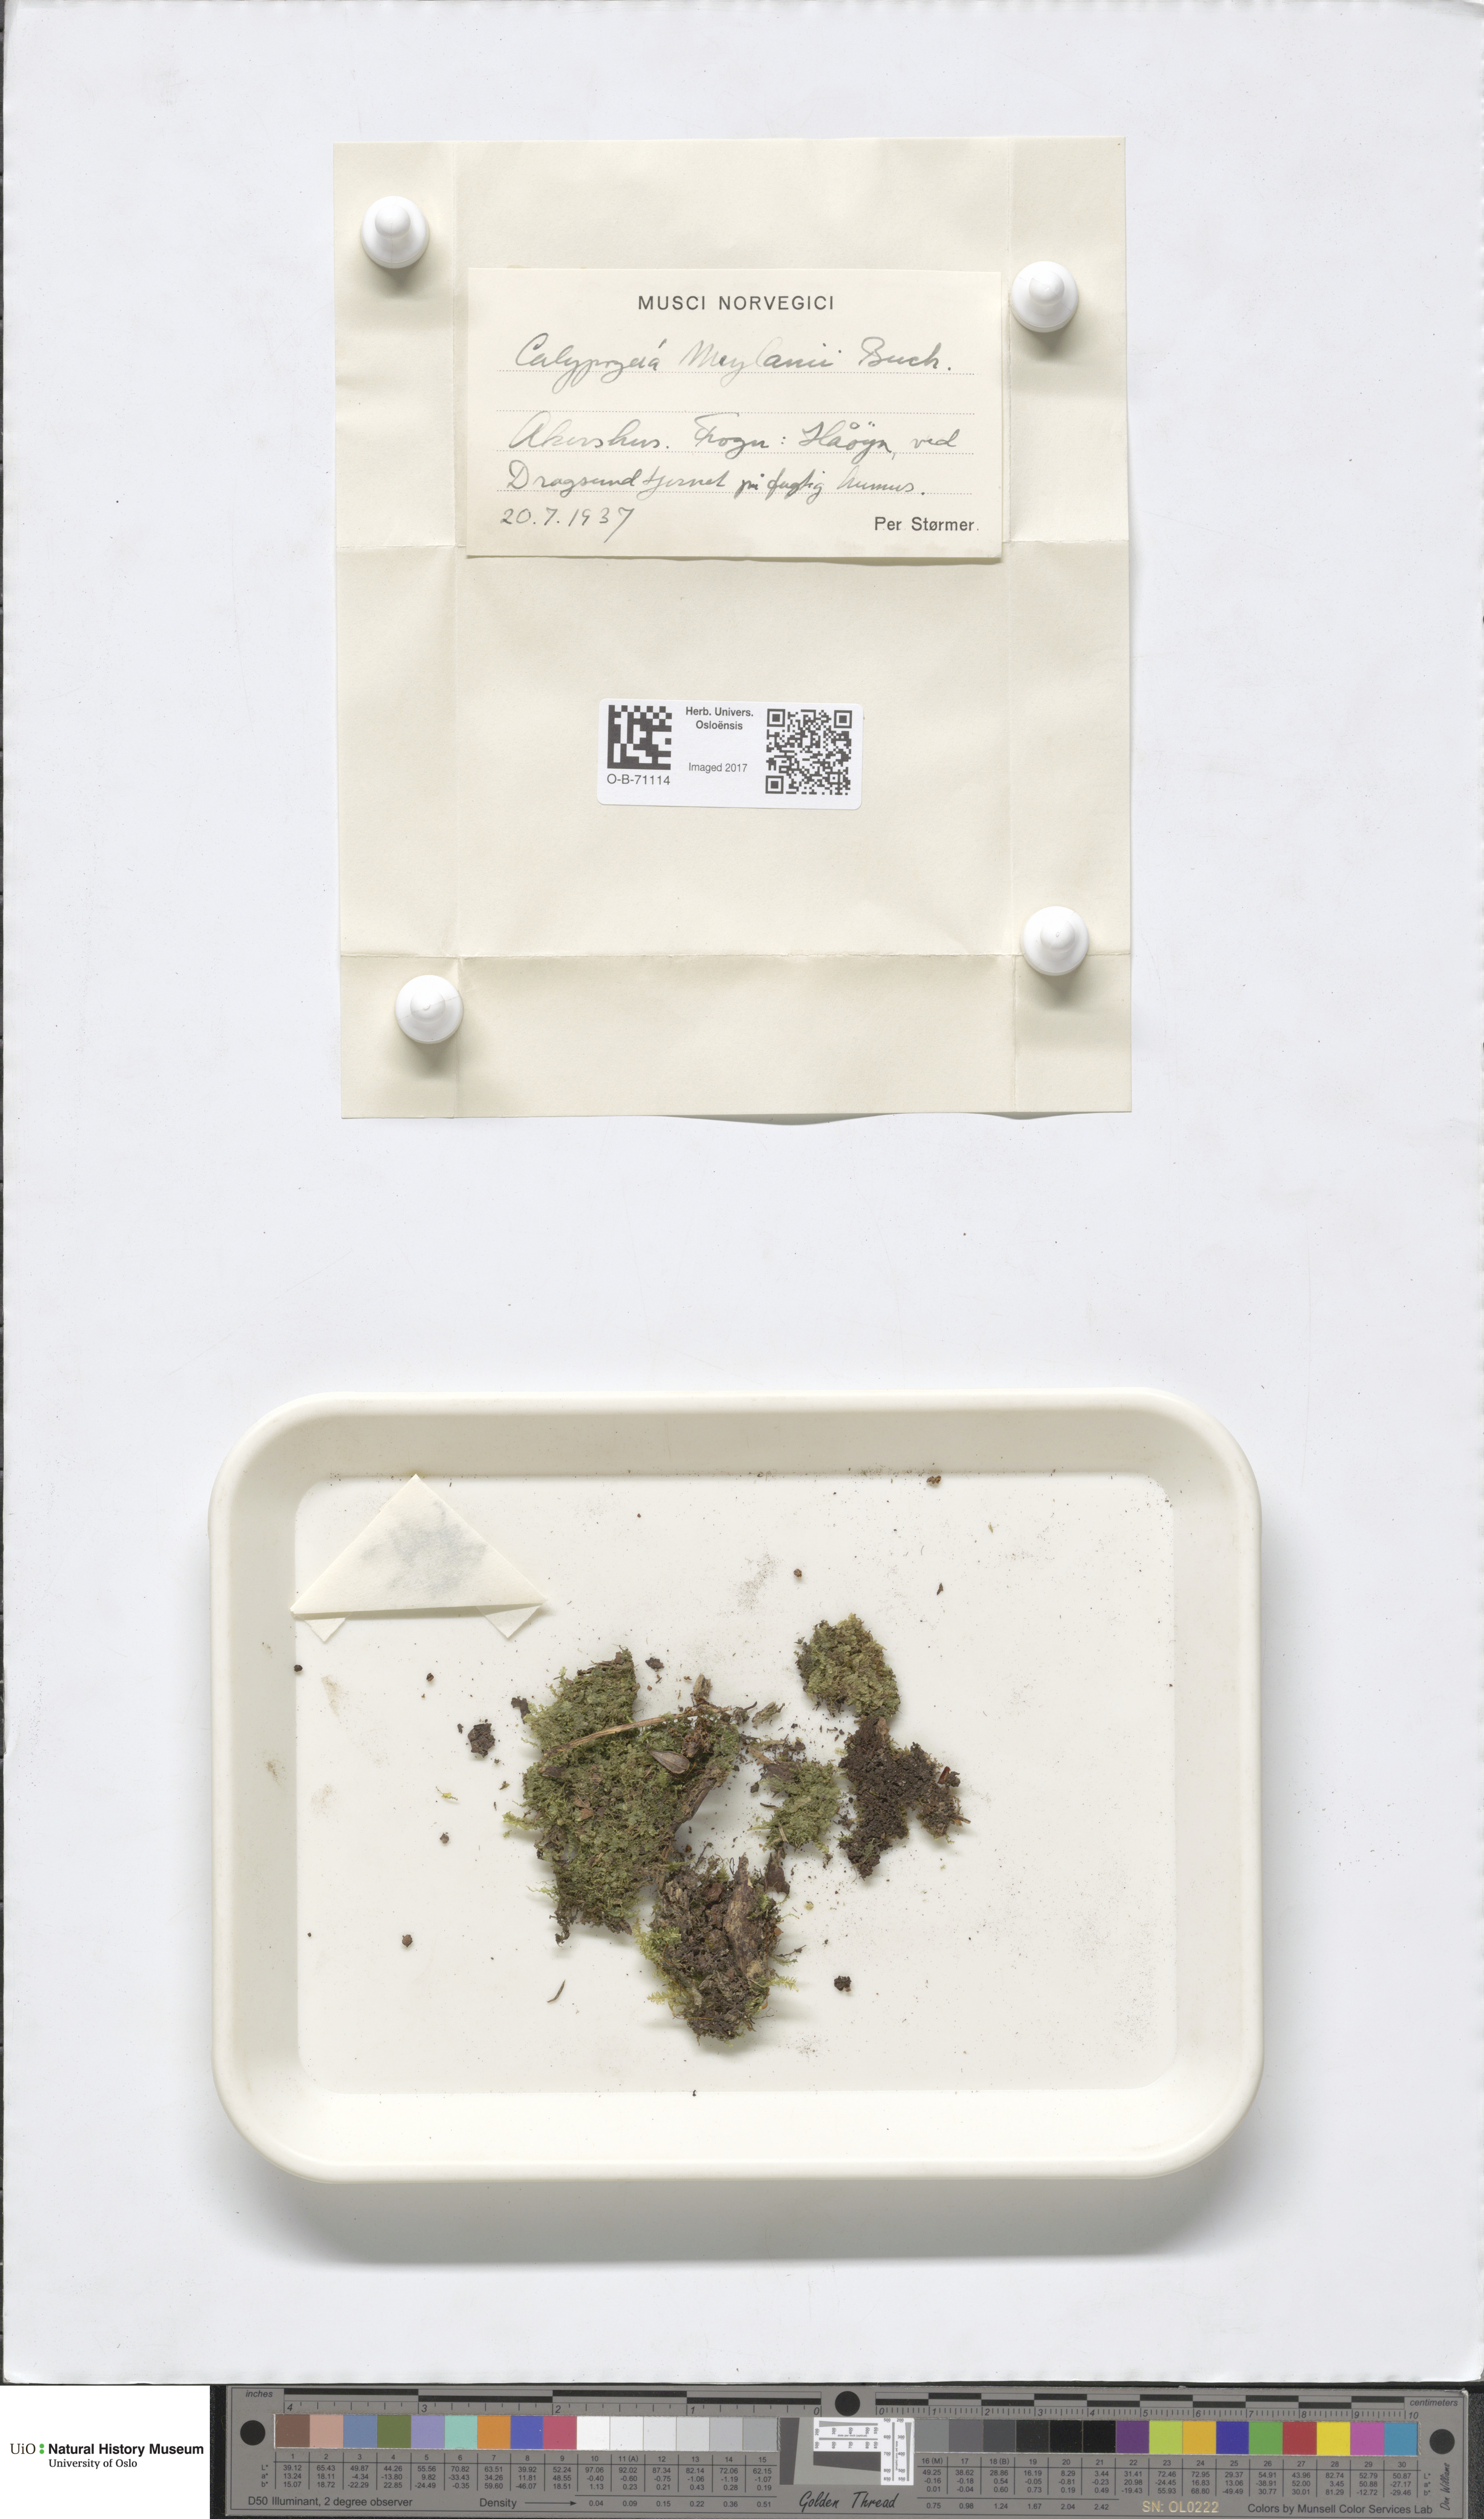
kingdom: Plantae
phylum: Marchantiophyta
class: Jungermanniopsida
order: Jungermanniales
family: Calypogeiaceae
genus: Calypogeia
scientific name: Calypogeia integristipula
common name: Meylan s pouchwort
